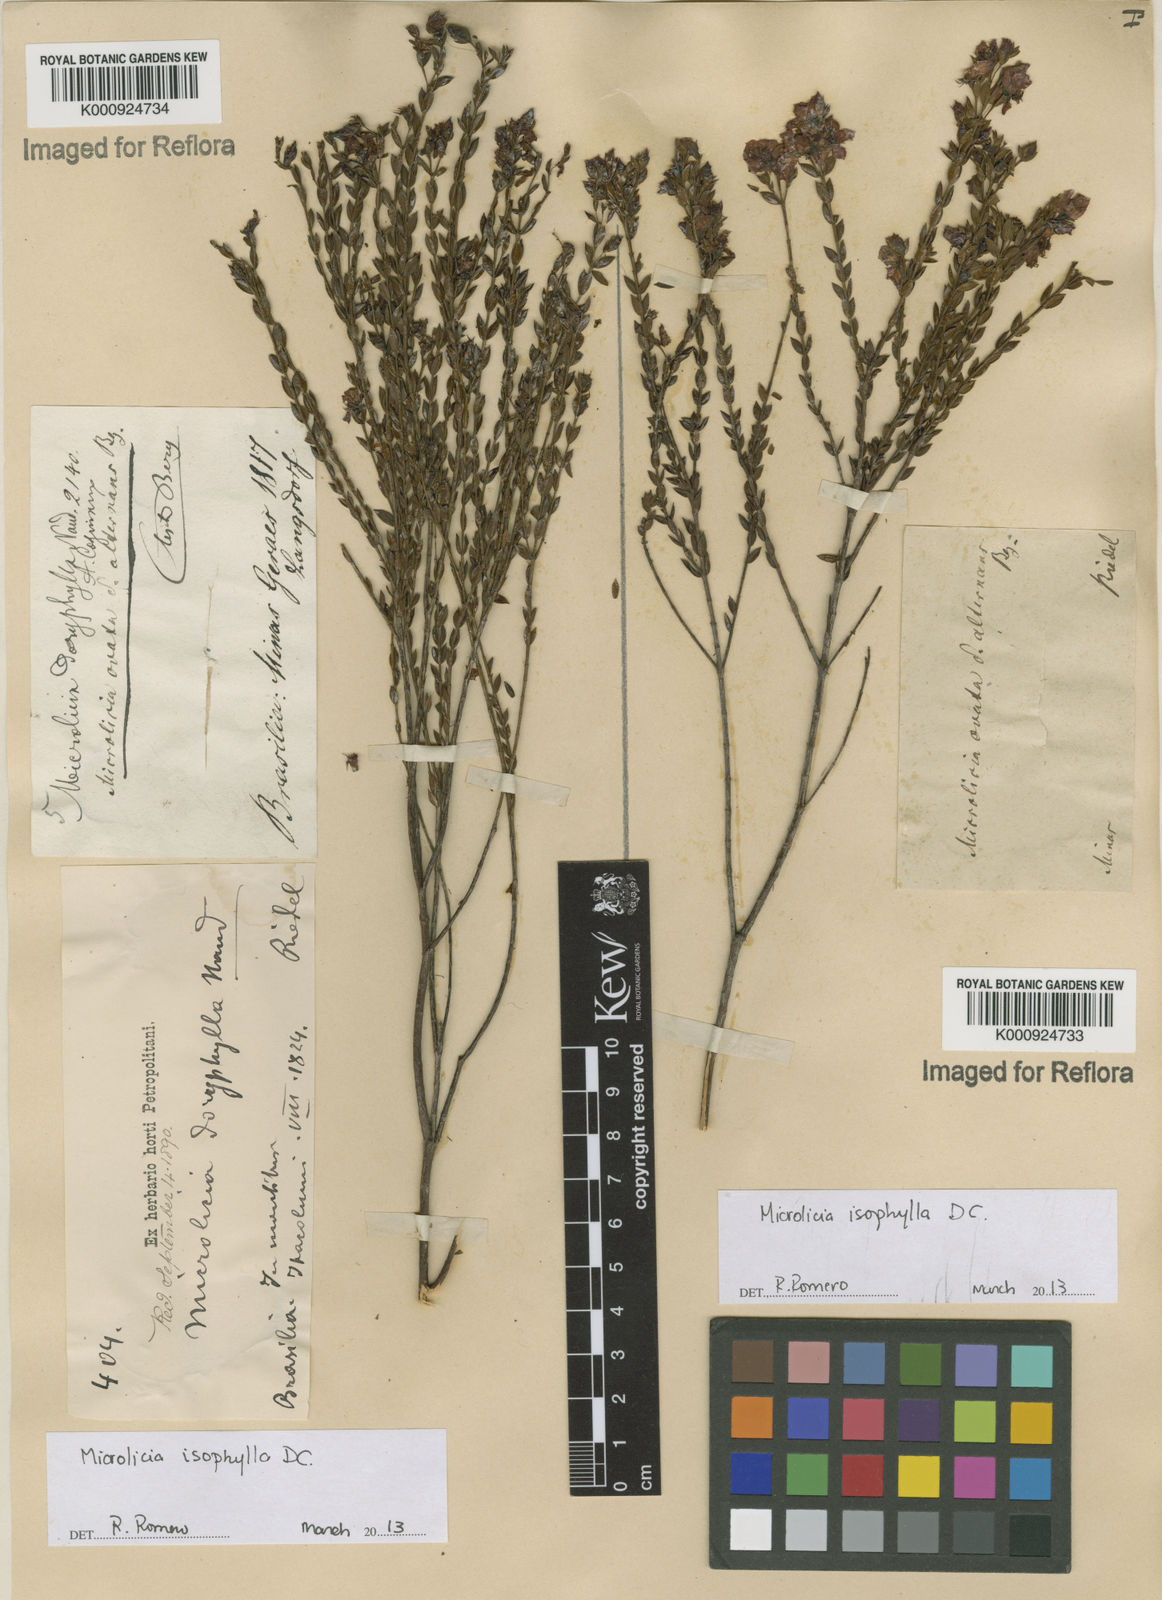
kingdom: Plantae
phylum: Tracheophyta
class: Magnoliopsida
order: Myrtales
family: Melastomataceae
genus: Microlicia
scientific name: Microlicia isophylla
